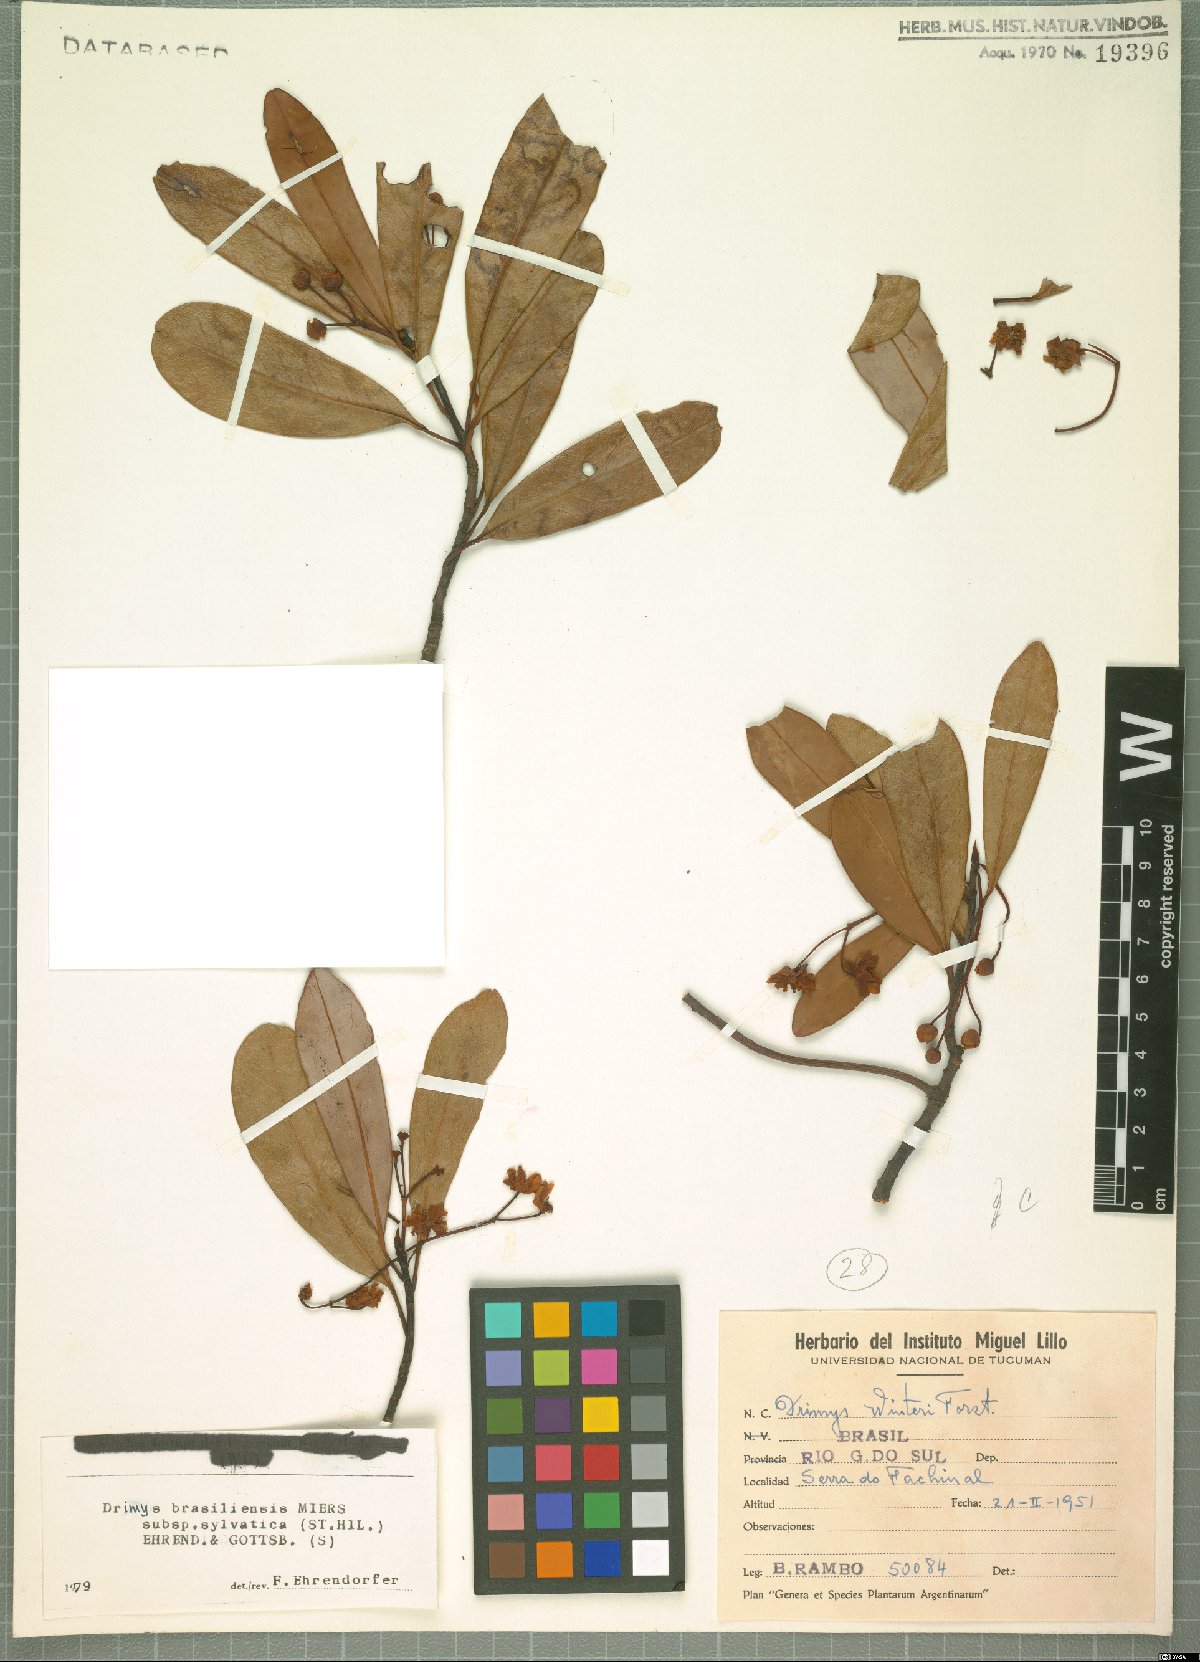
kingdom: Plantae
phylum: Tracheophyta
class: Magnoliopsida
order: Canellales
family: Winteraceae
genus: Drimys
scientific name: Drimys brasiliensis
